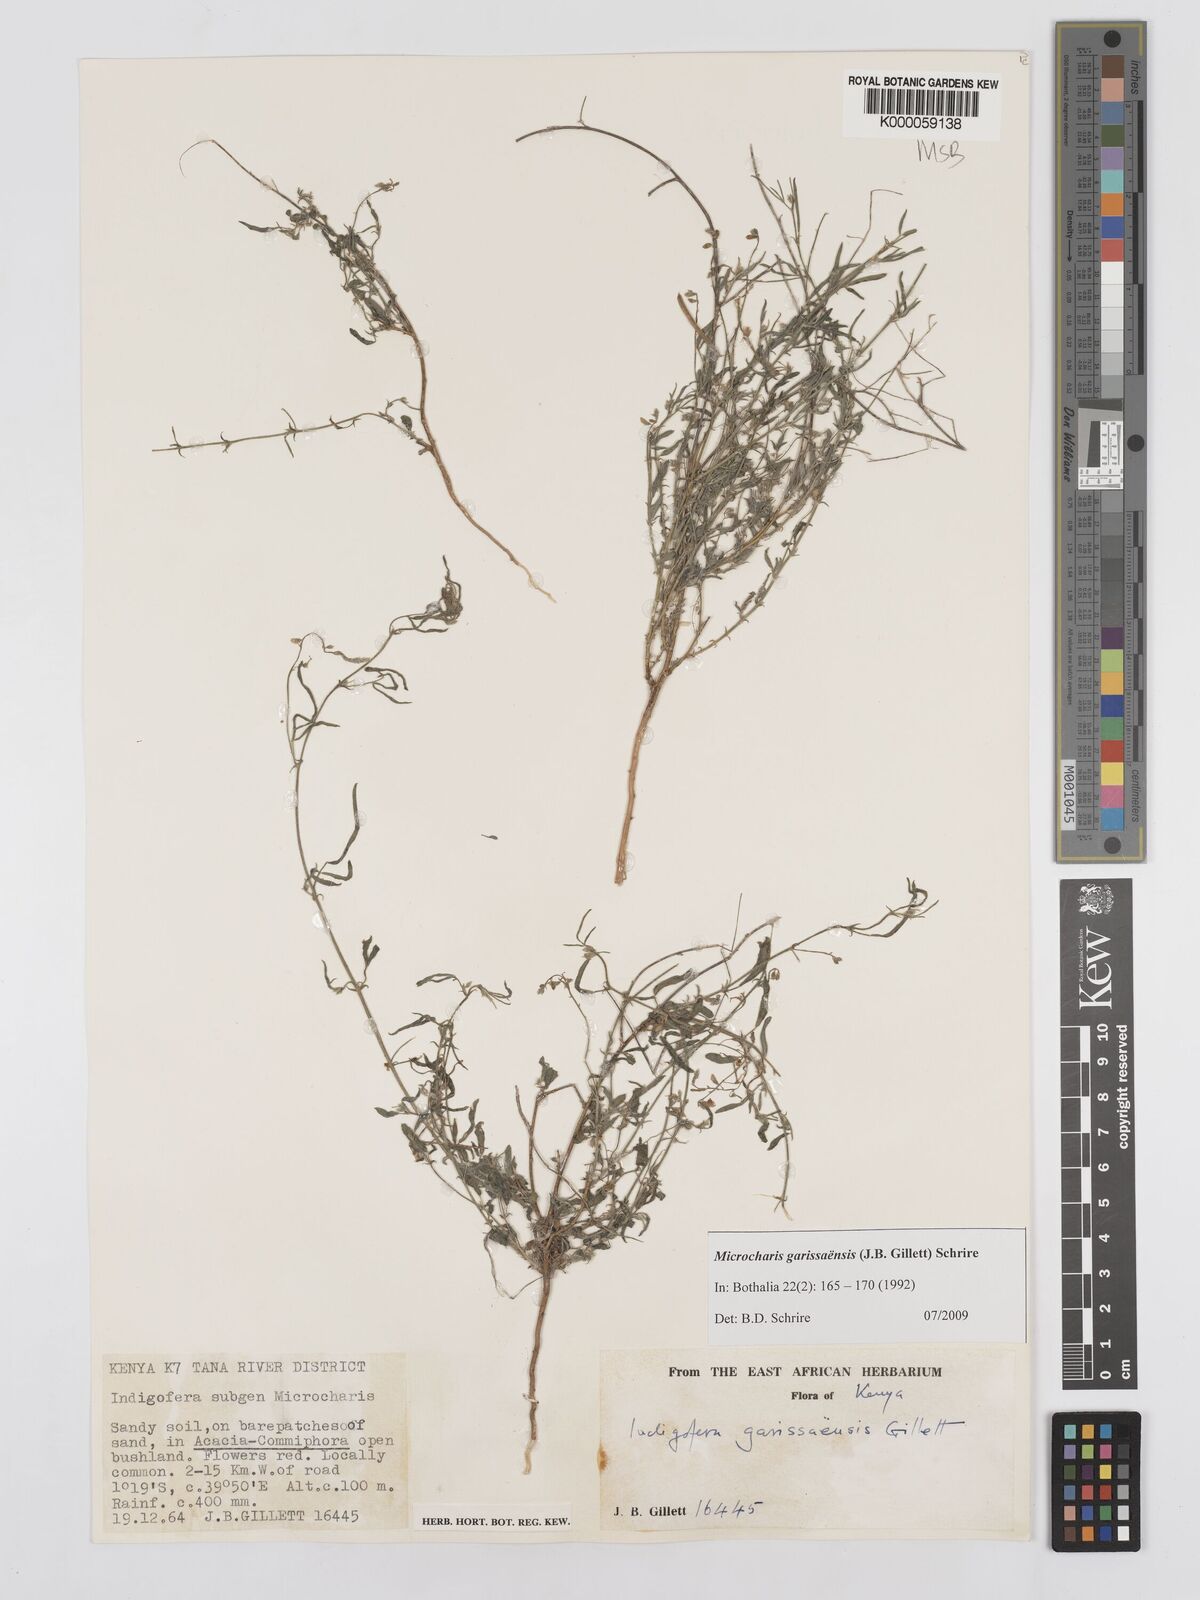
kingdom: Plantae
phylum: Tracheophyta
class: Magnoliopsida
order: Fabales
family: Fabaceae
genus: Microcharis
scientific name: Microcharis garissaensis
